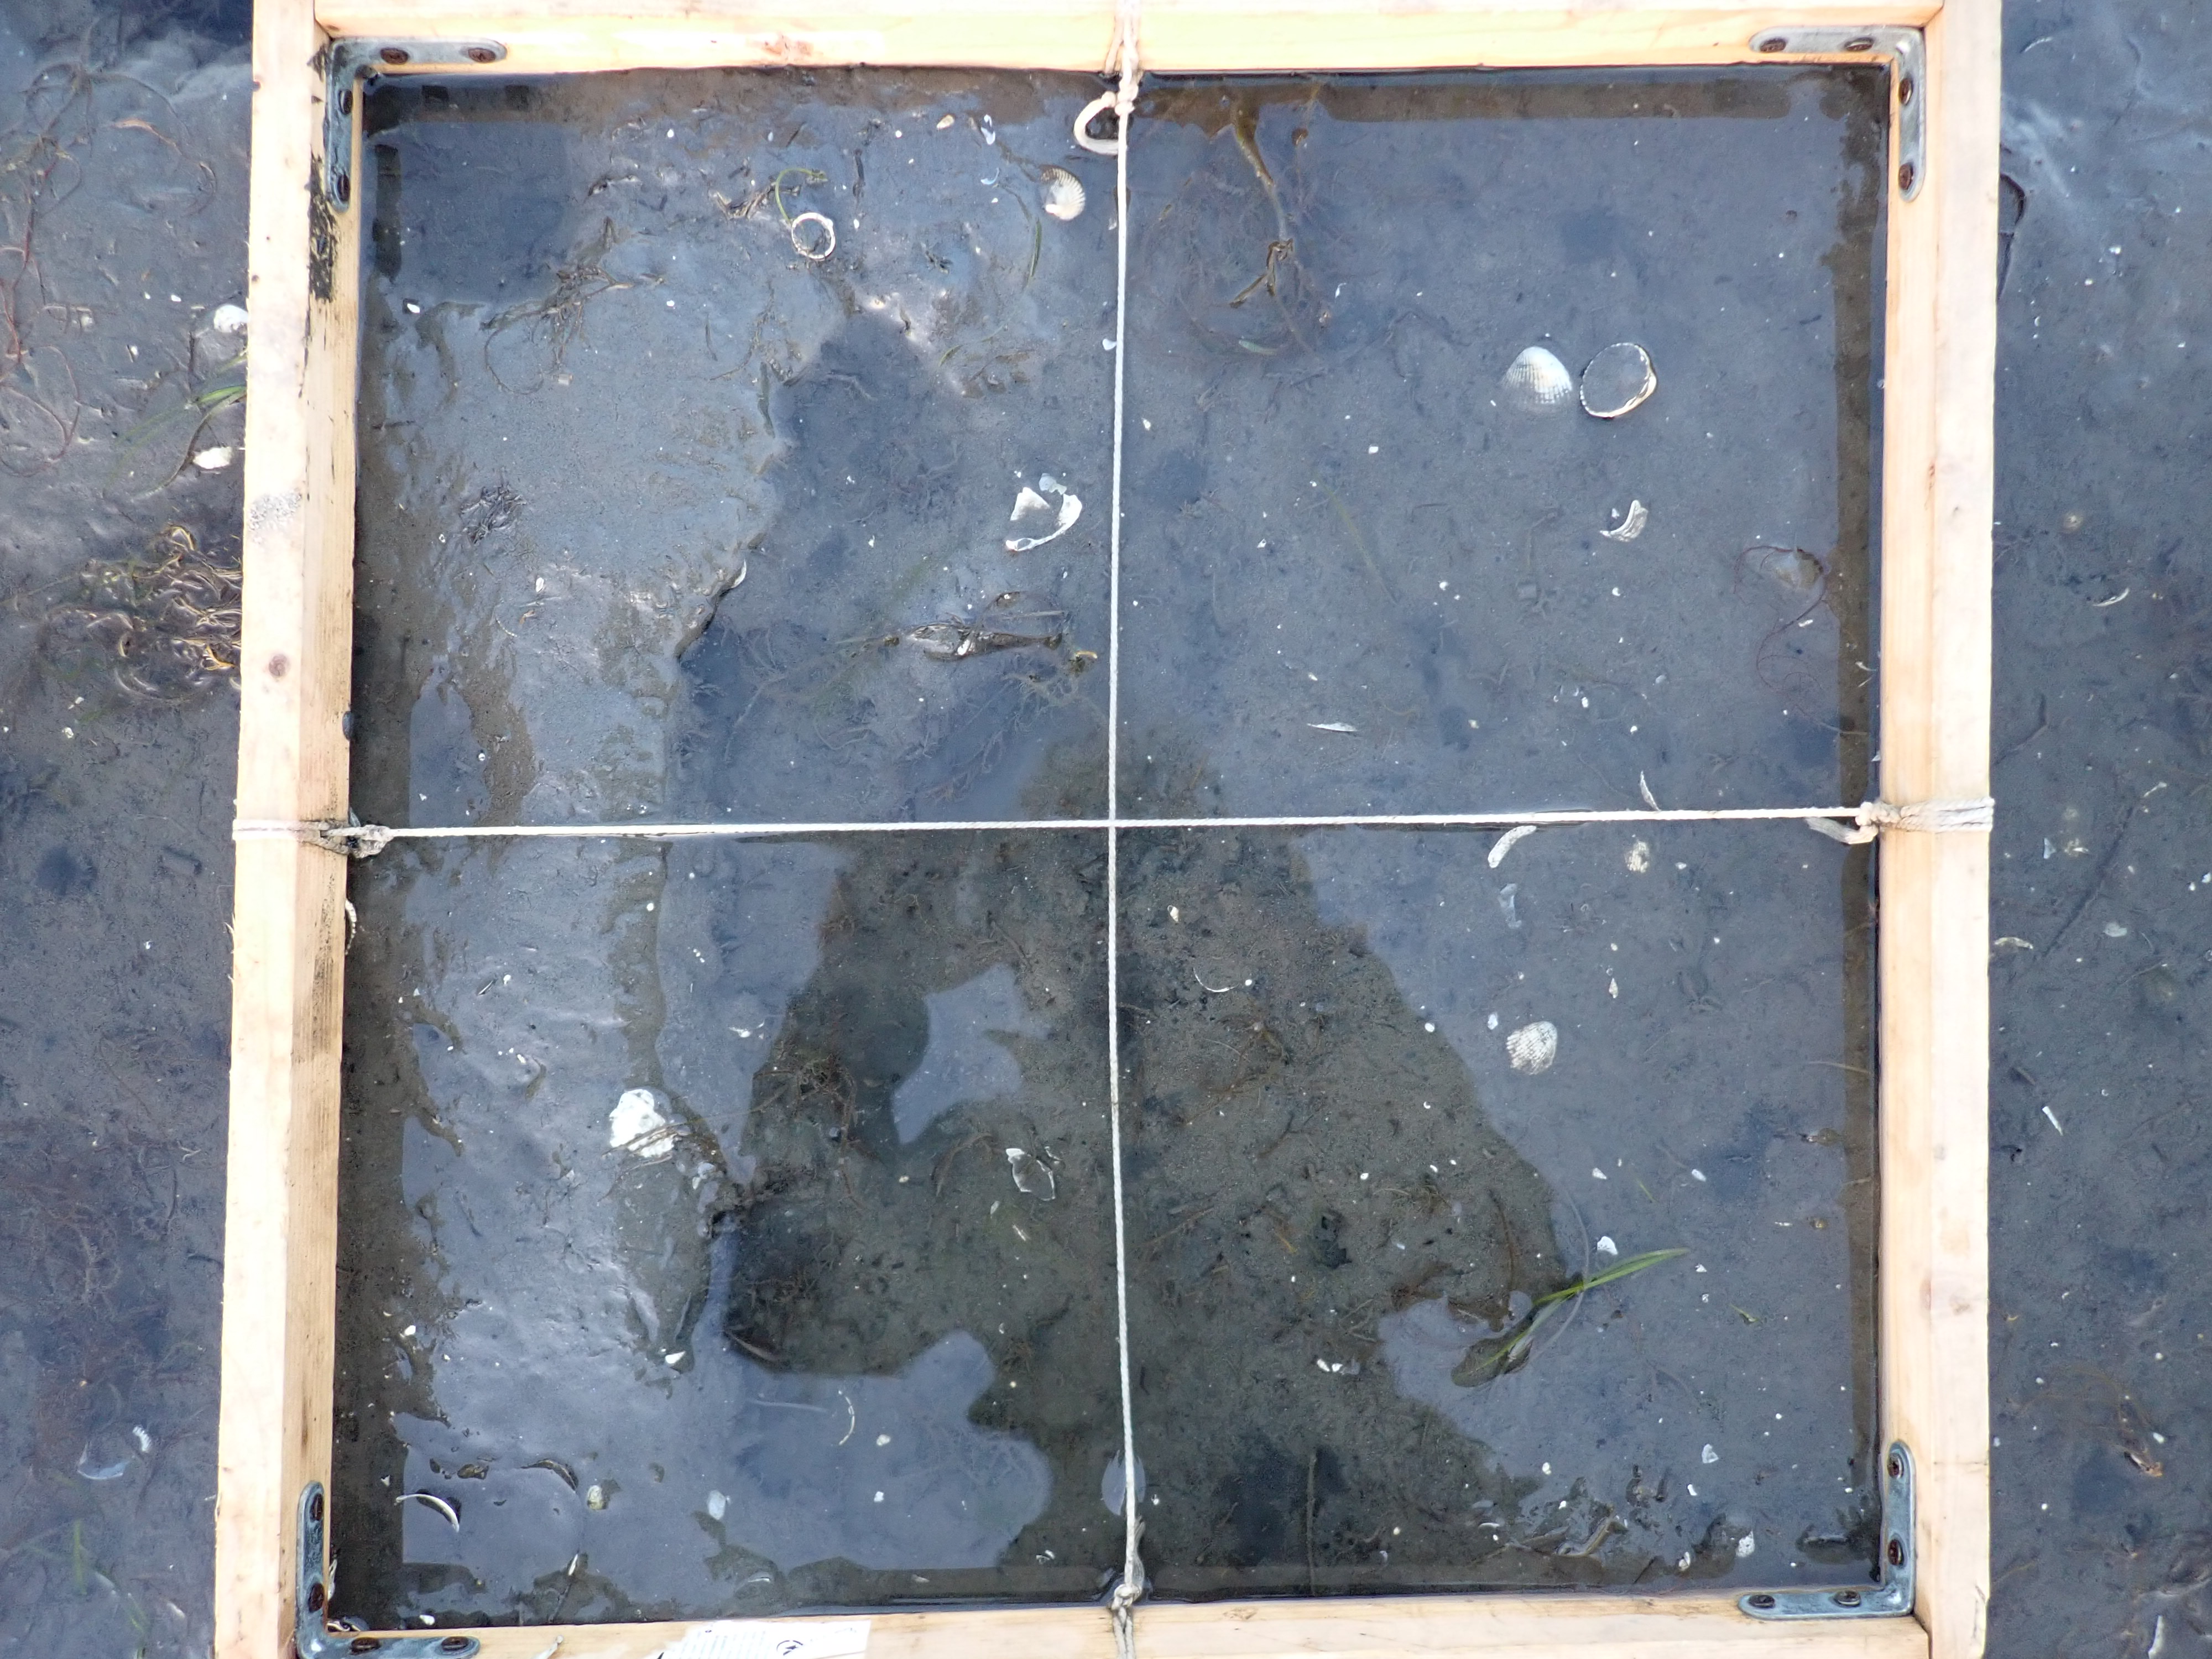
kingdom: Plantae
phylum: Rhodophyta
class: Florideophyceae
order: Gracilariales
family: Gracilariaceae
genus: Gracilaria
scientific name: Gracilaria vermiculophylla
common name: Algae
